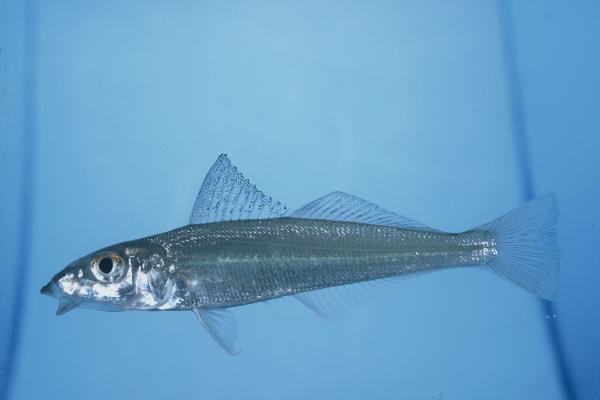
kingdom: Animalia
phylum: Chordata
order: Perciformes
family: Sillaginidae
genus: Sillago
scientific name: Sillago sihama
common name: Silver sillago
